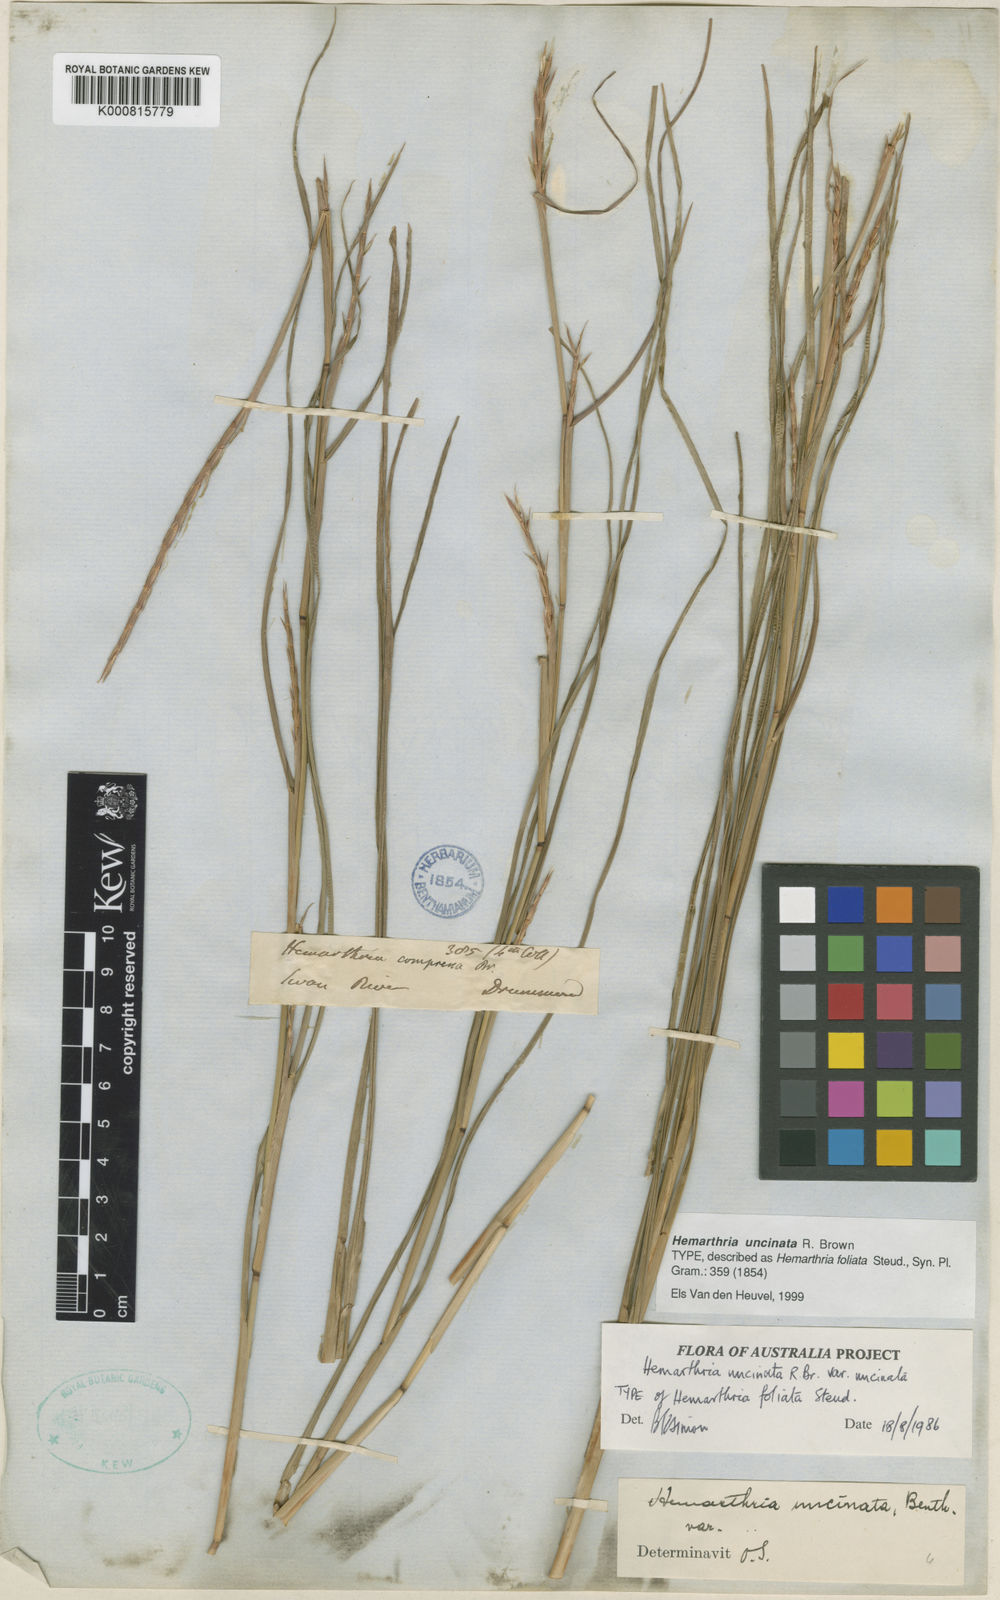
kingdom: Plantae
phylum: Tracheophyta
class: Liliopsida
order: Poales
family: Poaceae
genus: Hemarthria
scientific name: Hemarthria uncinata
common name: Matgrass
